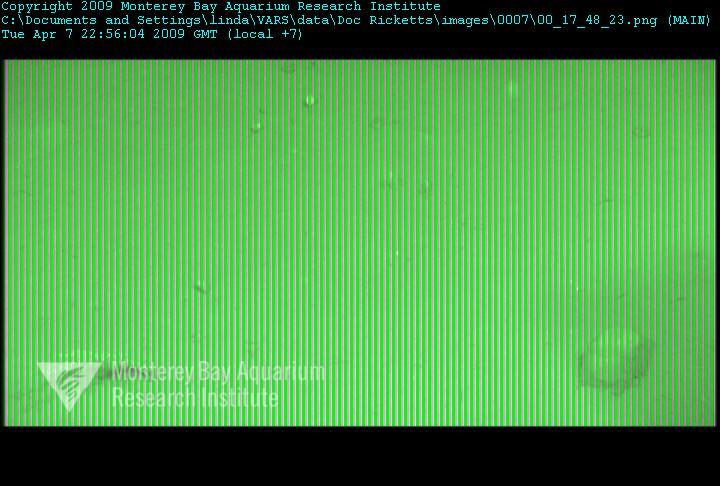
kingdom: Animalia
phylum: Porifera
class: Hexactinellida
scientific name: Hexactinellida
